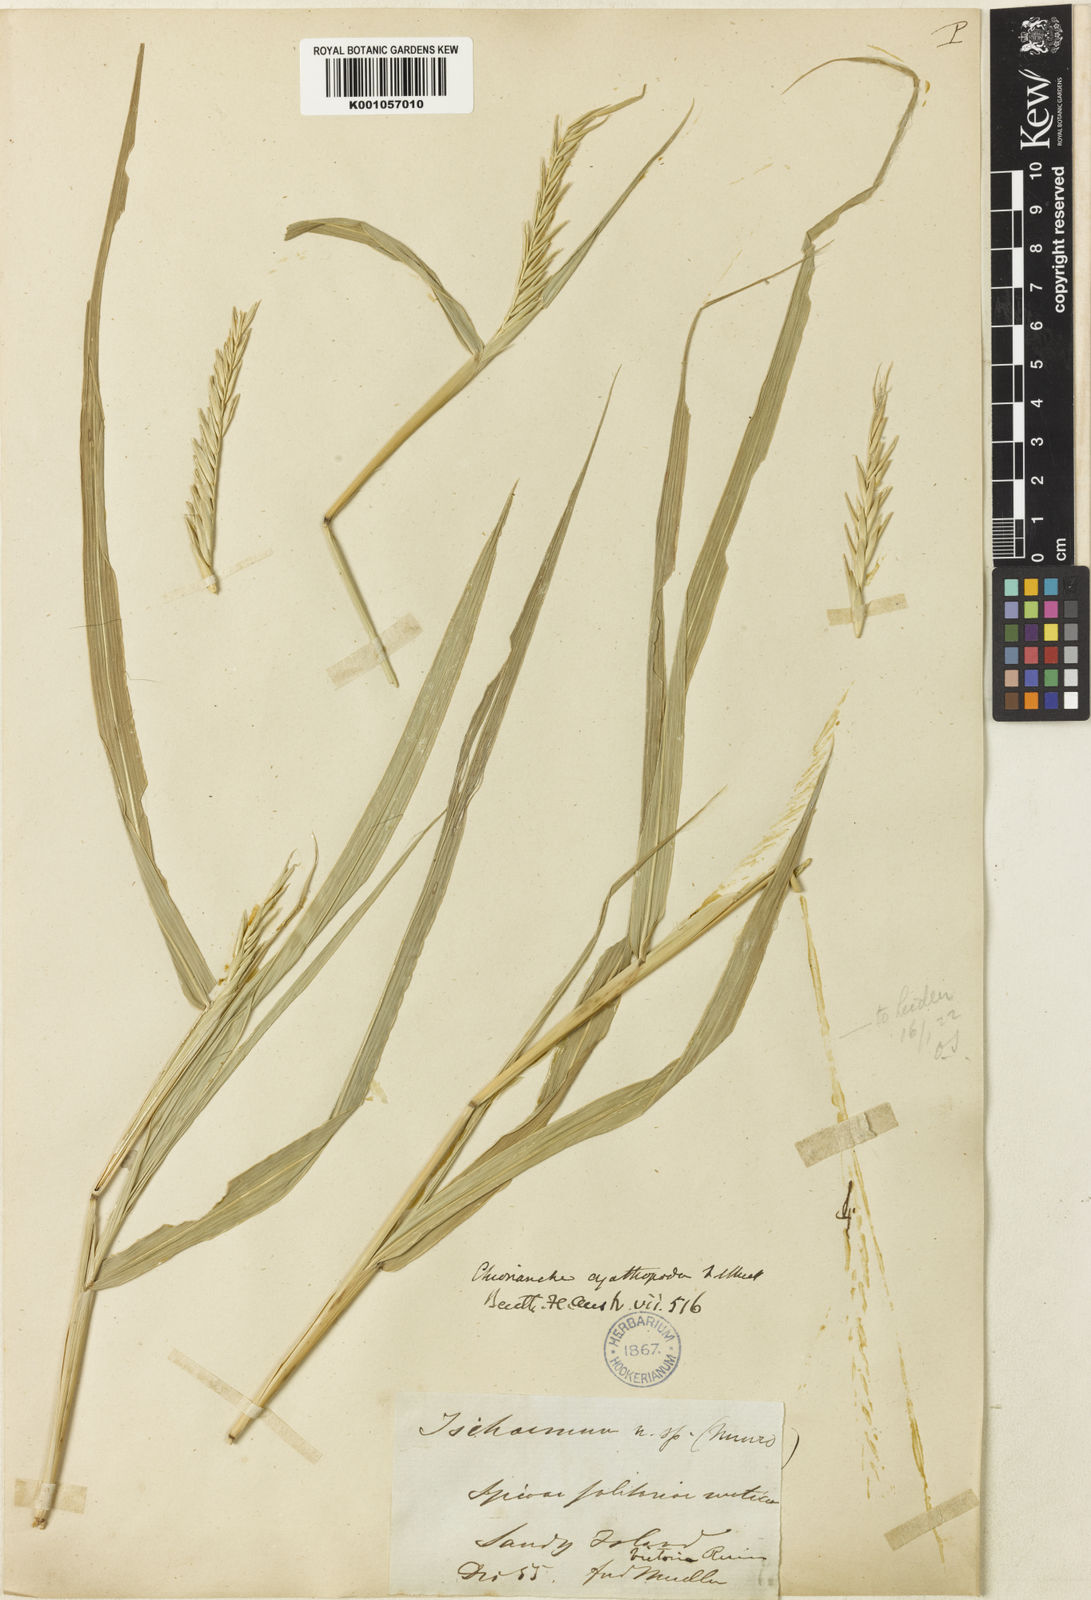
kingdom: Plantae
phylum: Tracheophyta
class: Liliopsida
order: Poales
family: Poaceae
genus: Polytoca
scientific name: Polytoca cyathopoda
